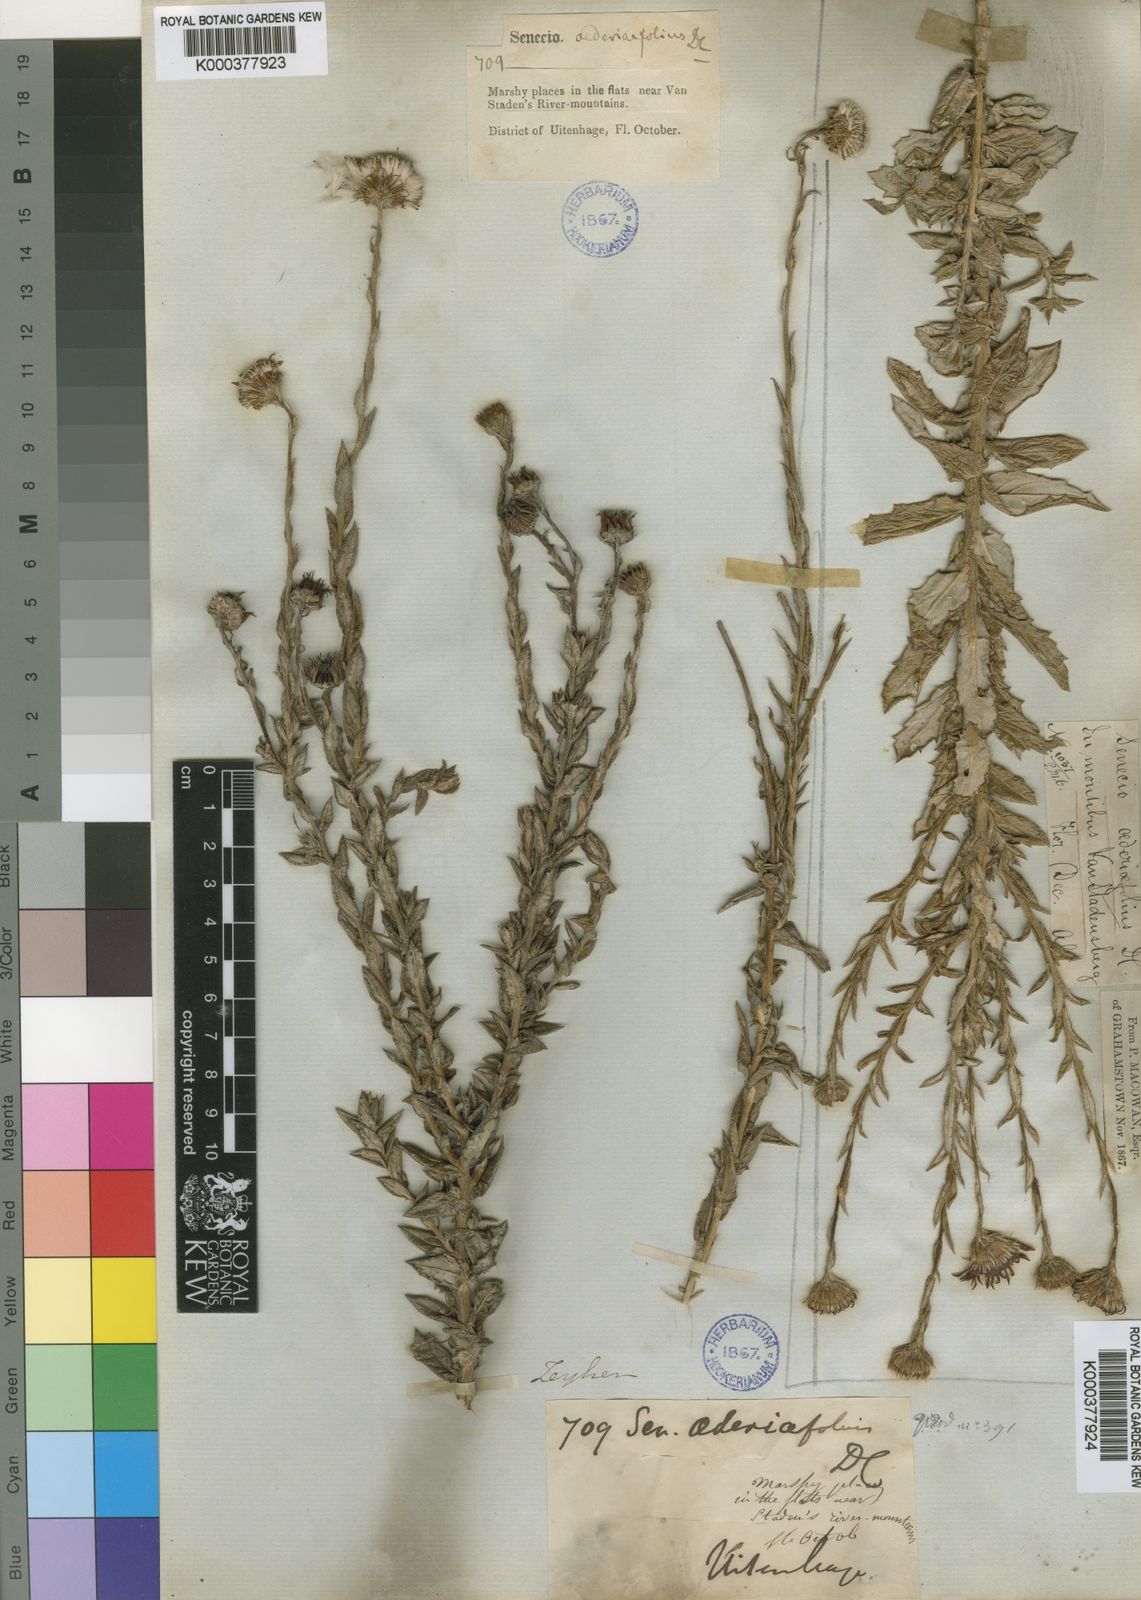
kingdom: Plantae
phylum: Tracheophyta
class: Magnoliopsida
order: Asterales
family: Asteraceae
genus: Senecio
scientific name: Senecio
